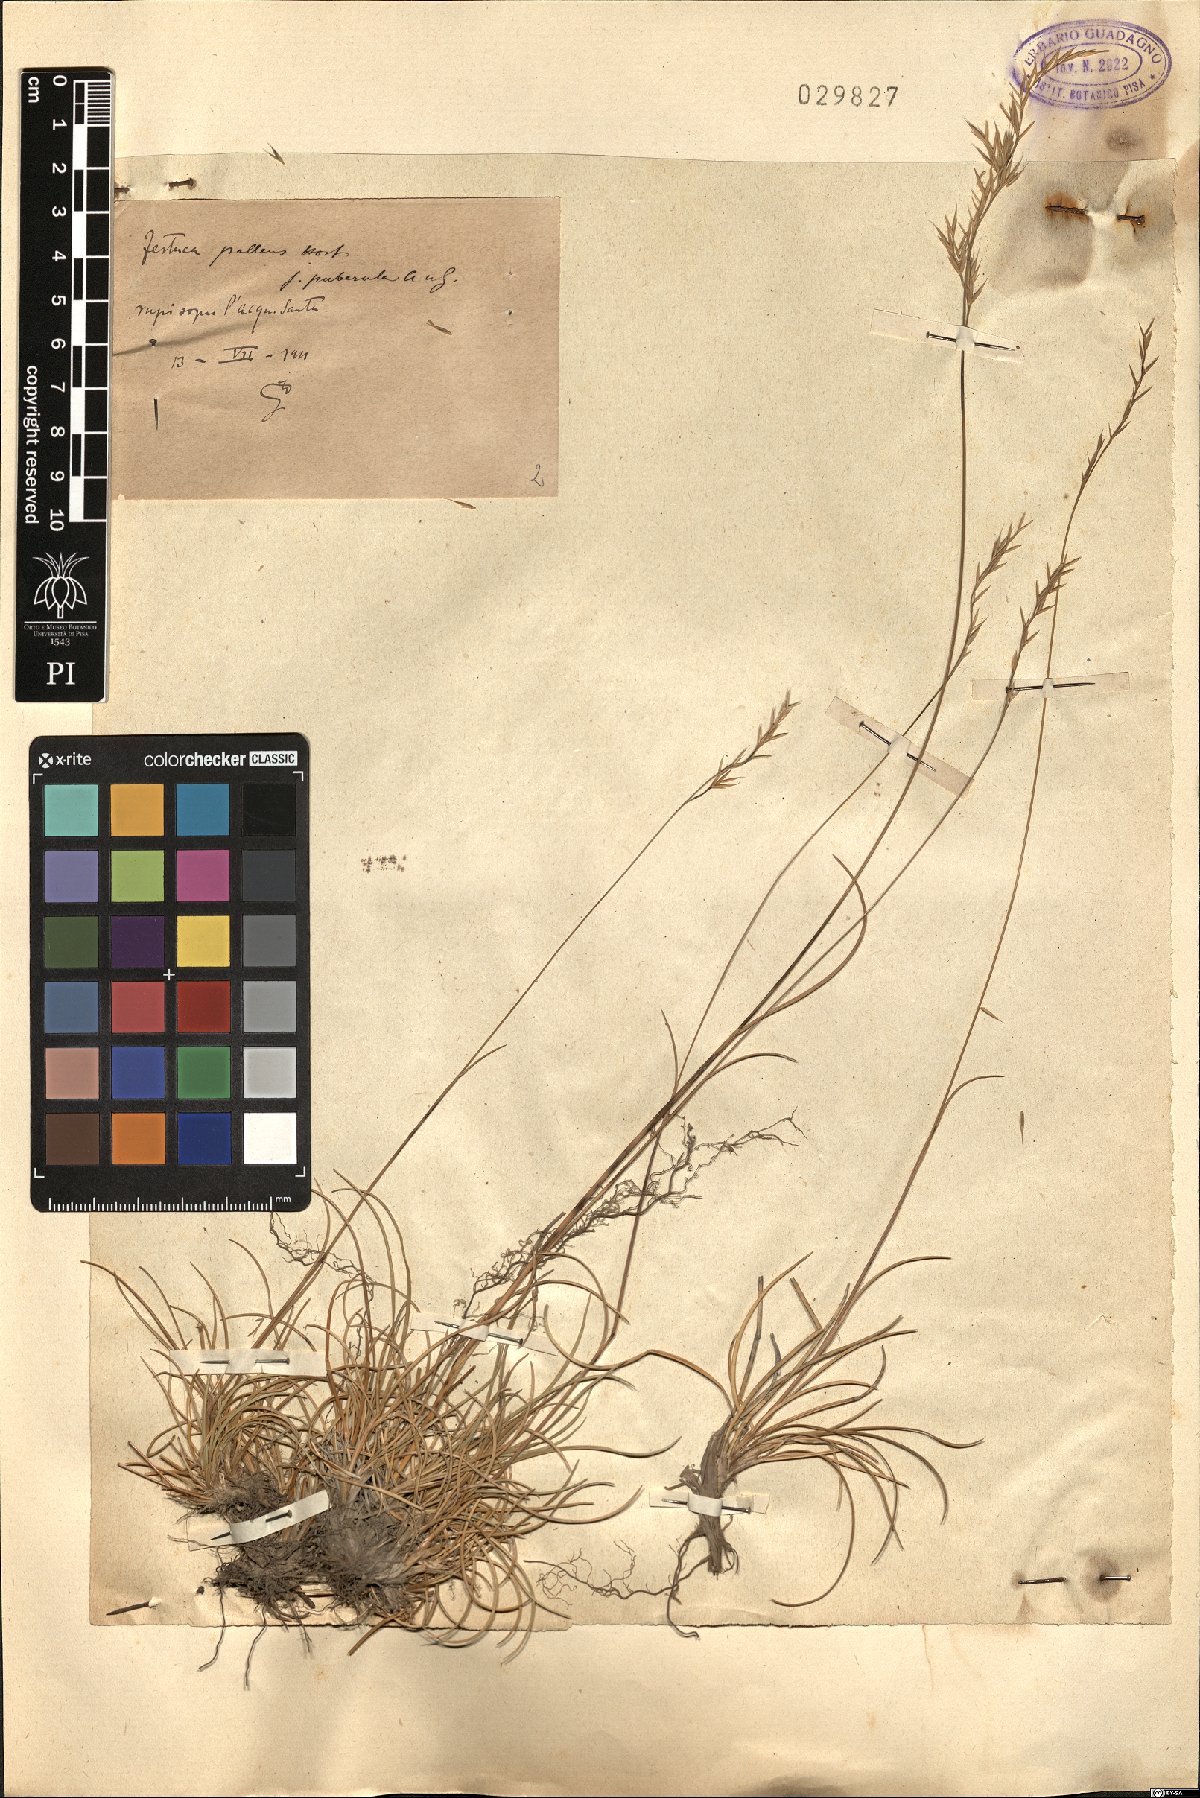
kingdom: Plantae
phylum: Tracheophyta
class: Liliopsida
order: Poales
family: Poaceae
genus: Festuca
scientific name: Festuca circummediterranea
